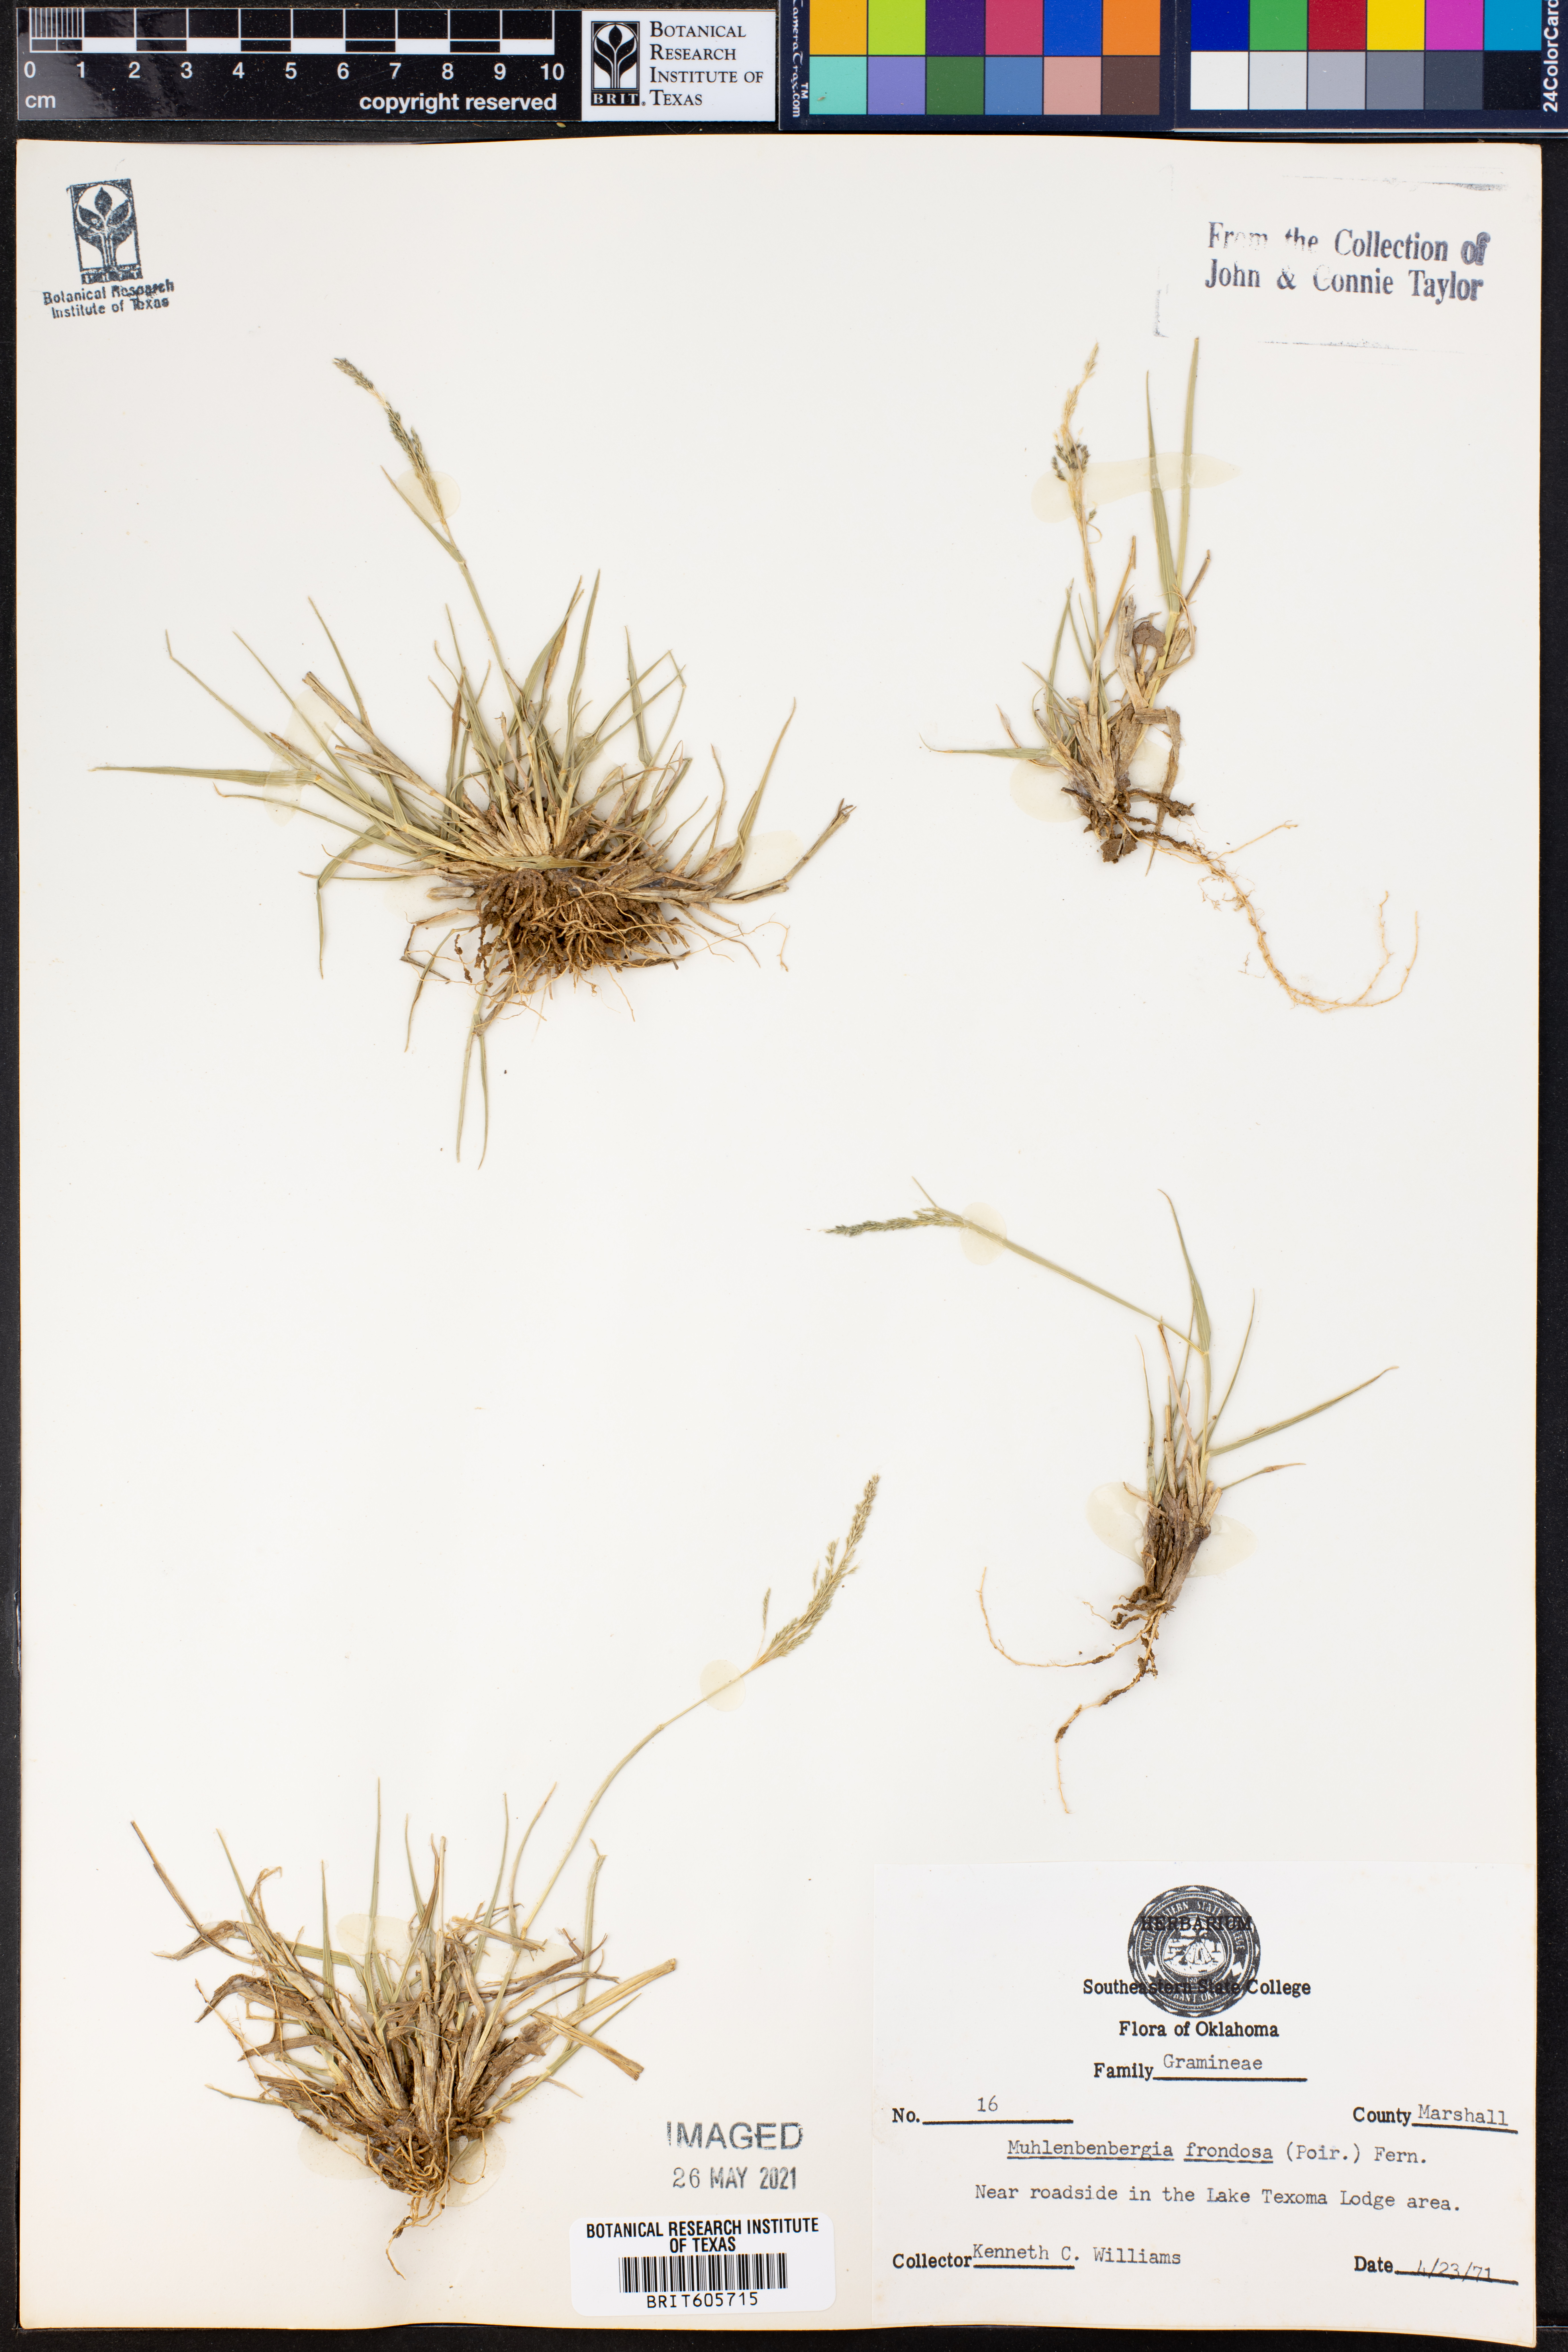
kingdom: Plantae
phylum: Tracheophyta
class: Liliopsida
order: Poales
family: Poaceae
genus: Muhlenbergia
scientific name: Muhlenbergia frondosa
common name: Common satingrass
